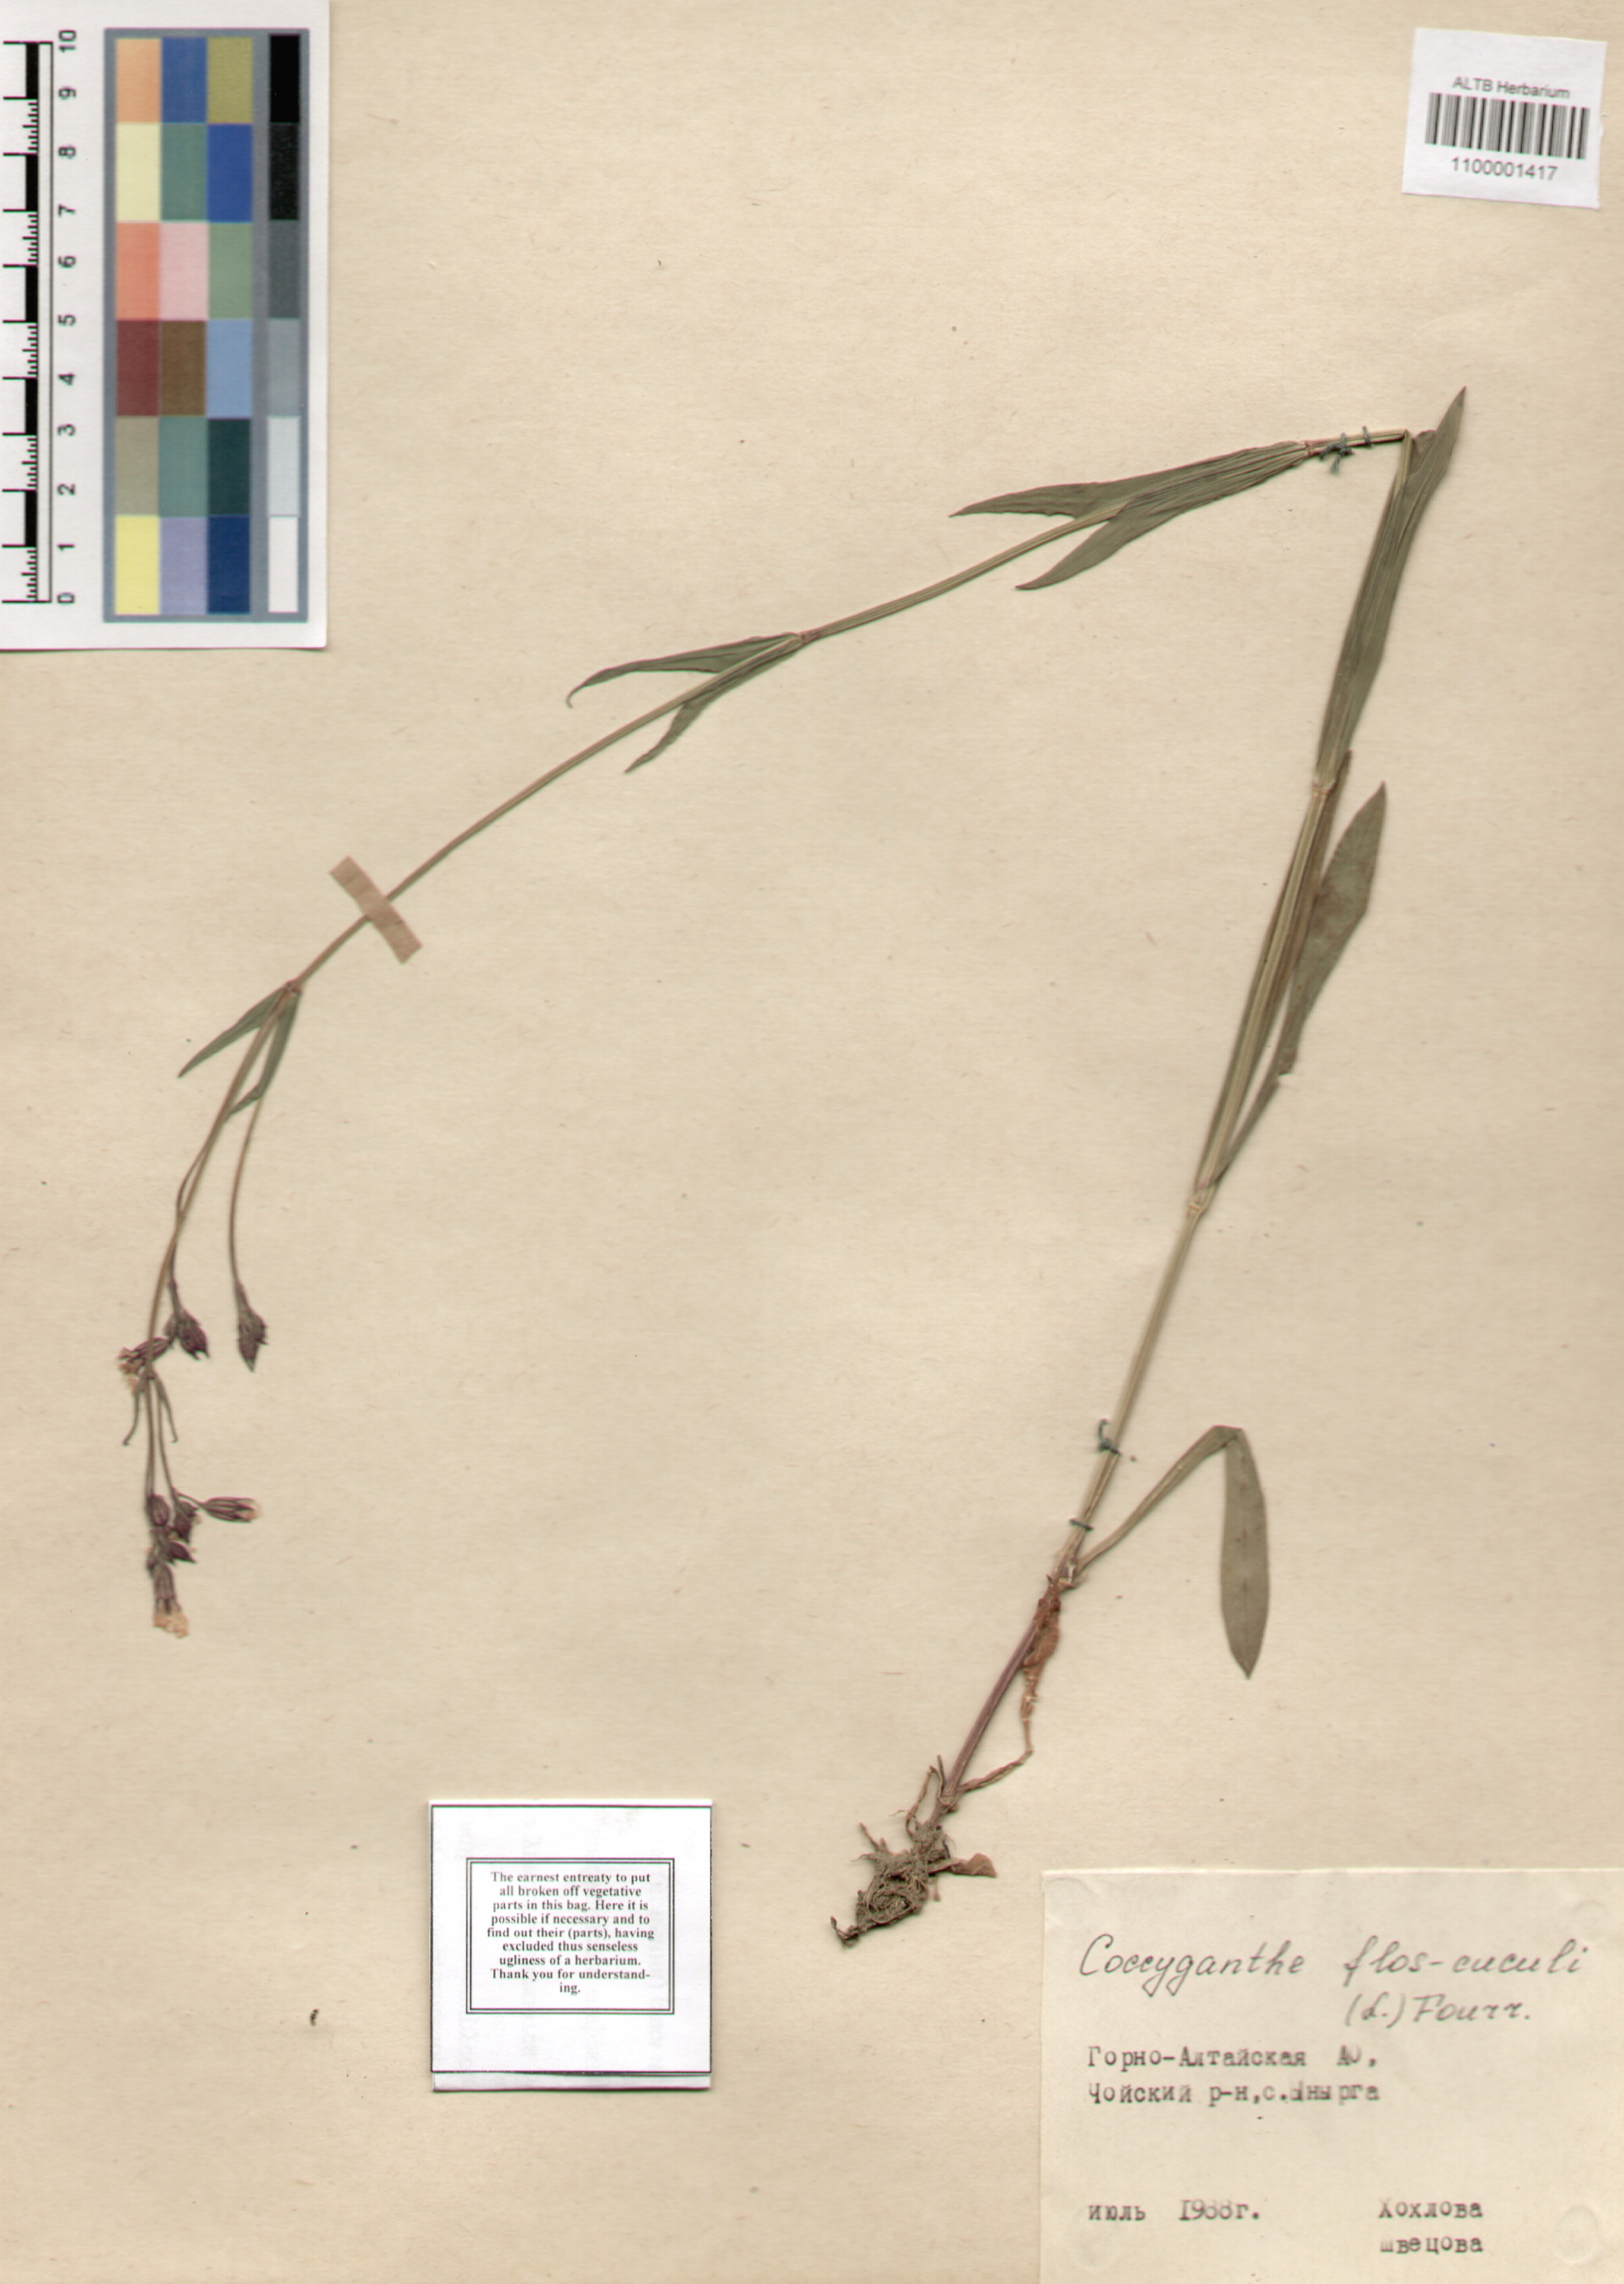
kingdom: Plantae
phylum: Tracheophyta
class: Magnoliopsida
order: Caryophyllales
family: Caryophyllaceae
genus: Silene
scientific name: Silene flos-cuculi
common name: Ragged-robin
